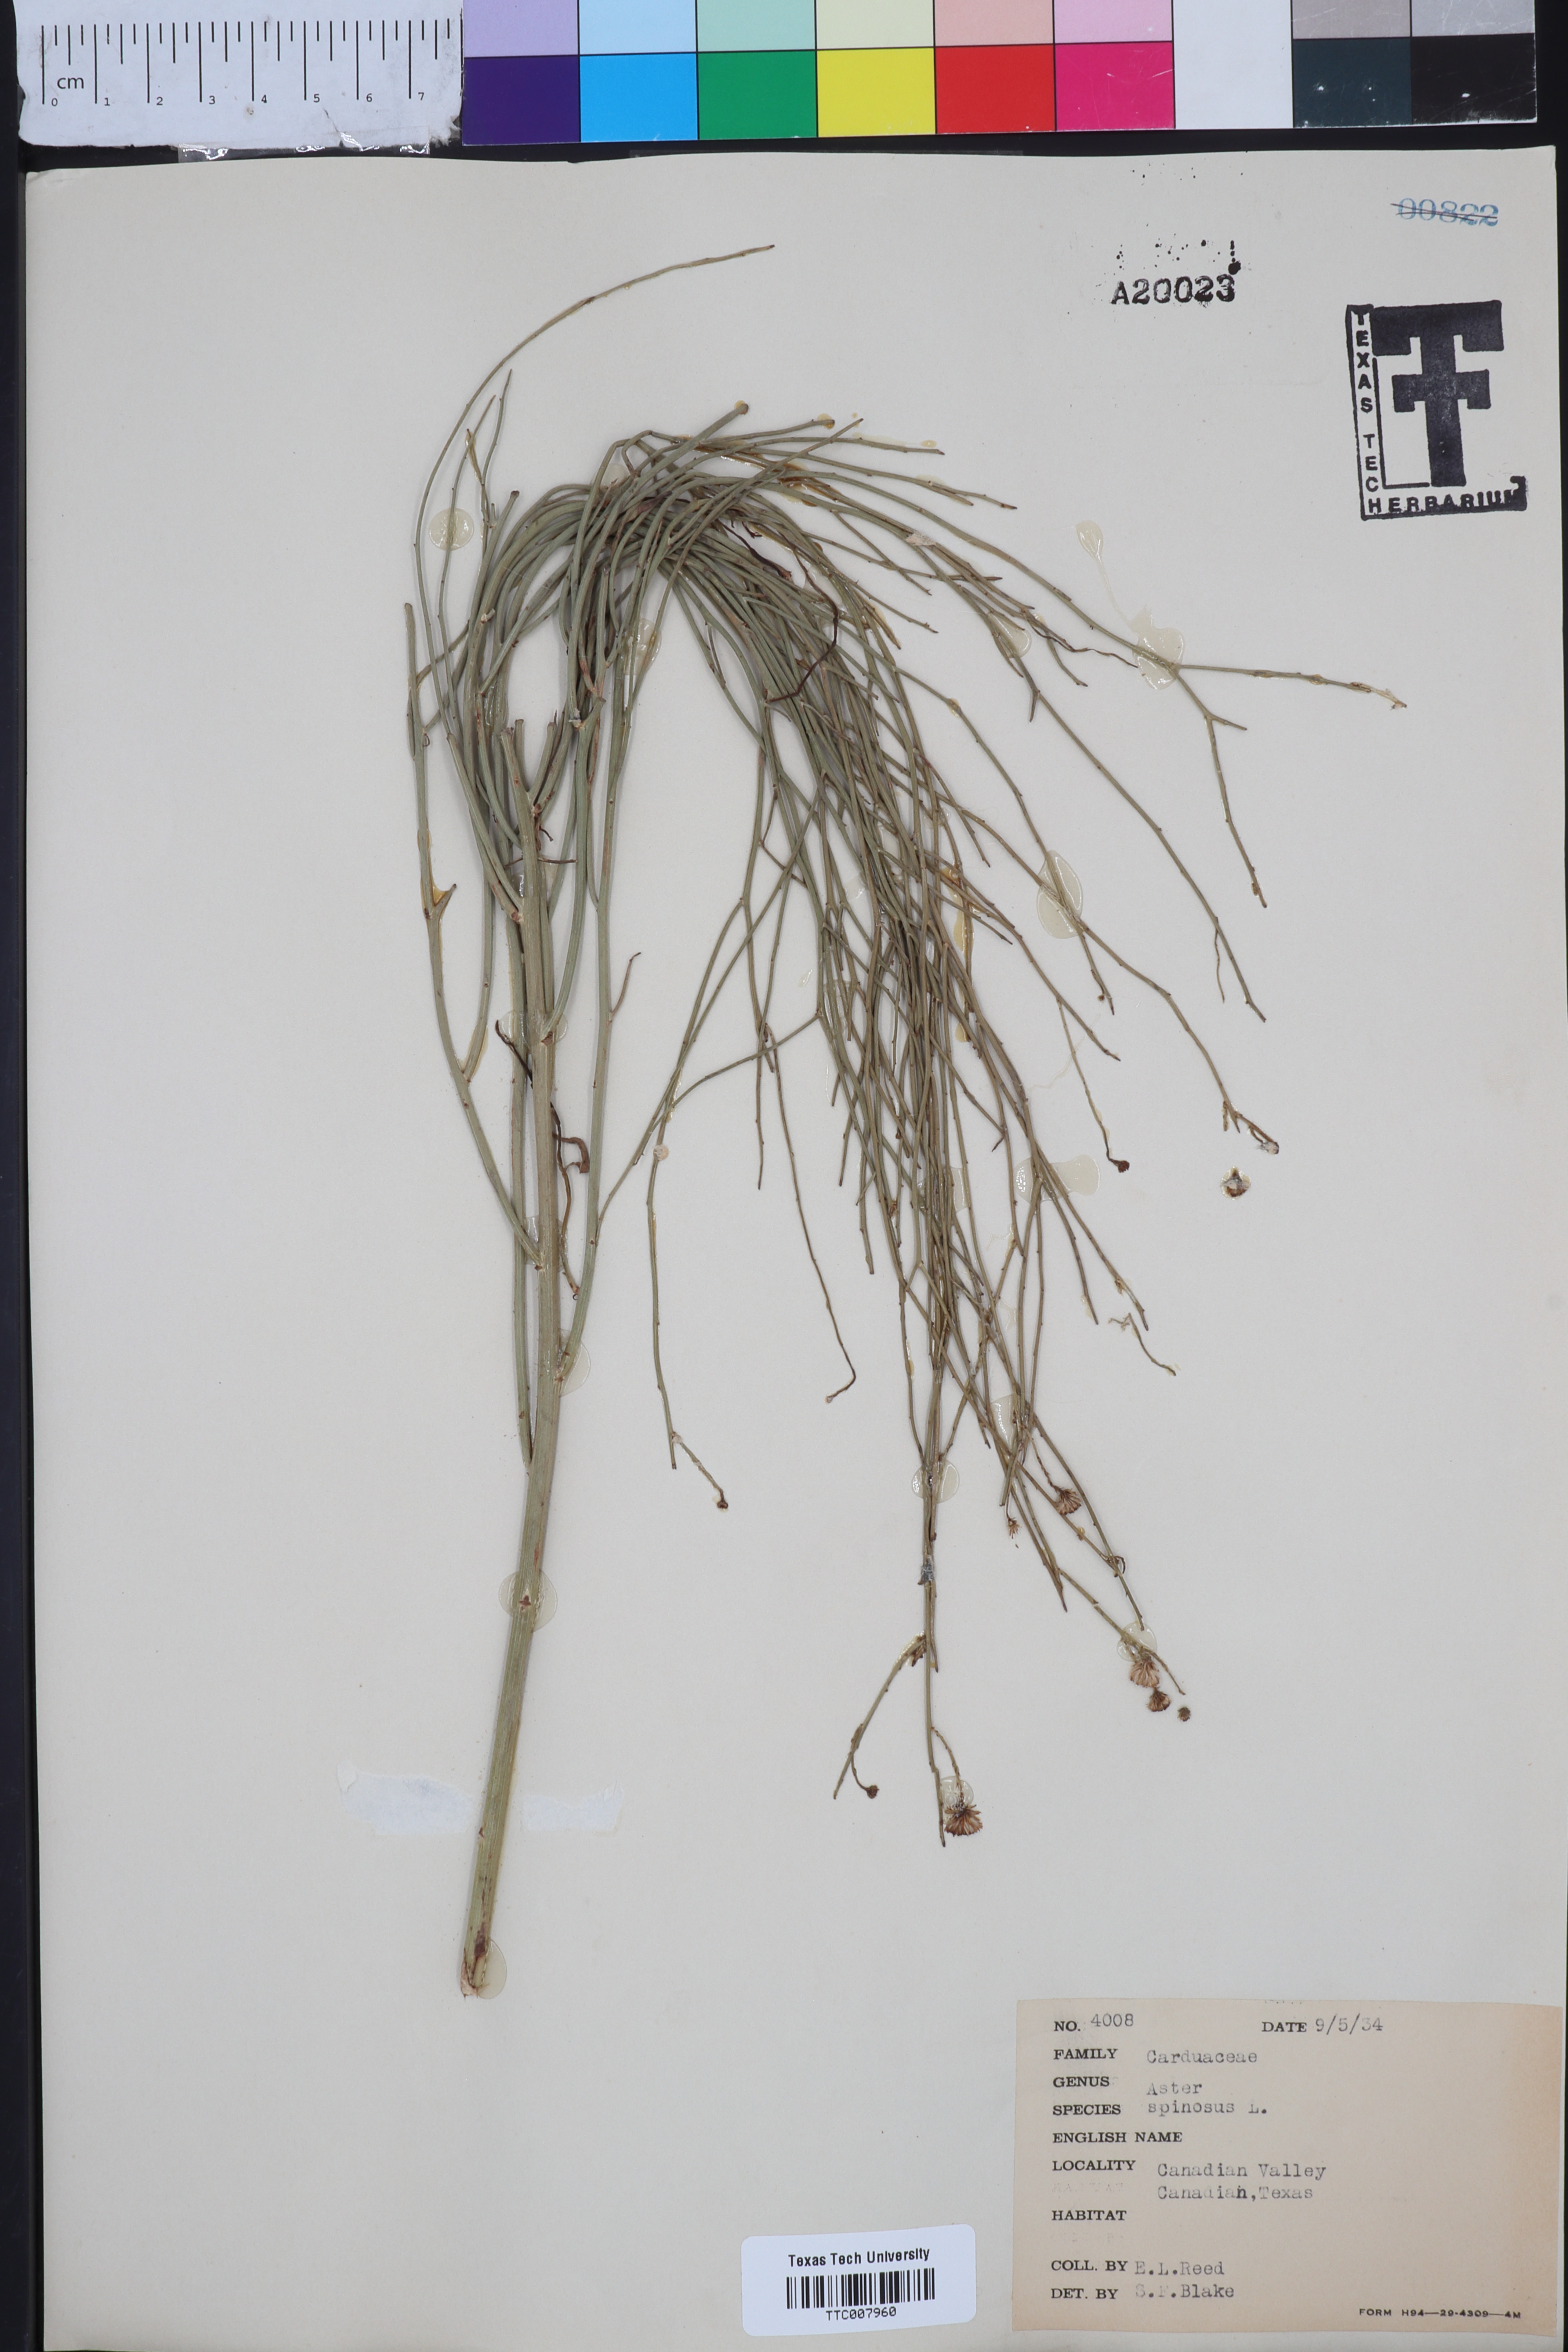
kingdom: Plantae
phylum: Tracheophyta
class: Magnoliopsida
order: Asterales
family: Asteraceae
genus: Chloracantha
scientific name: Chloracantha spinosa
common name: Mexican devilweed
